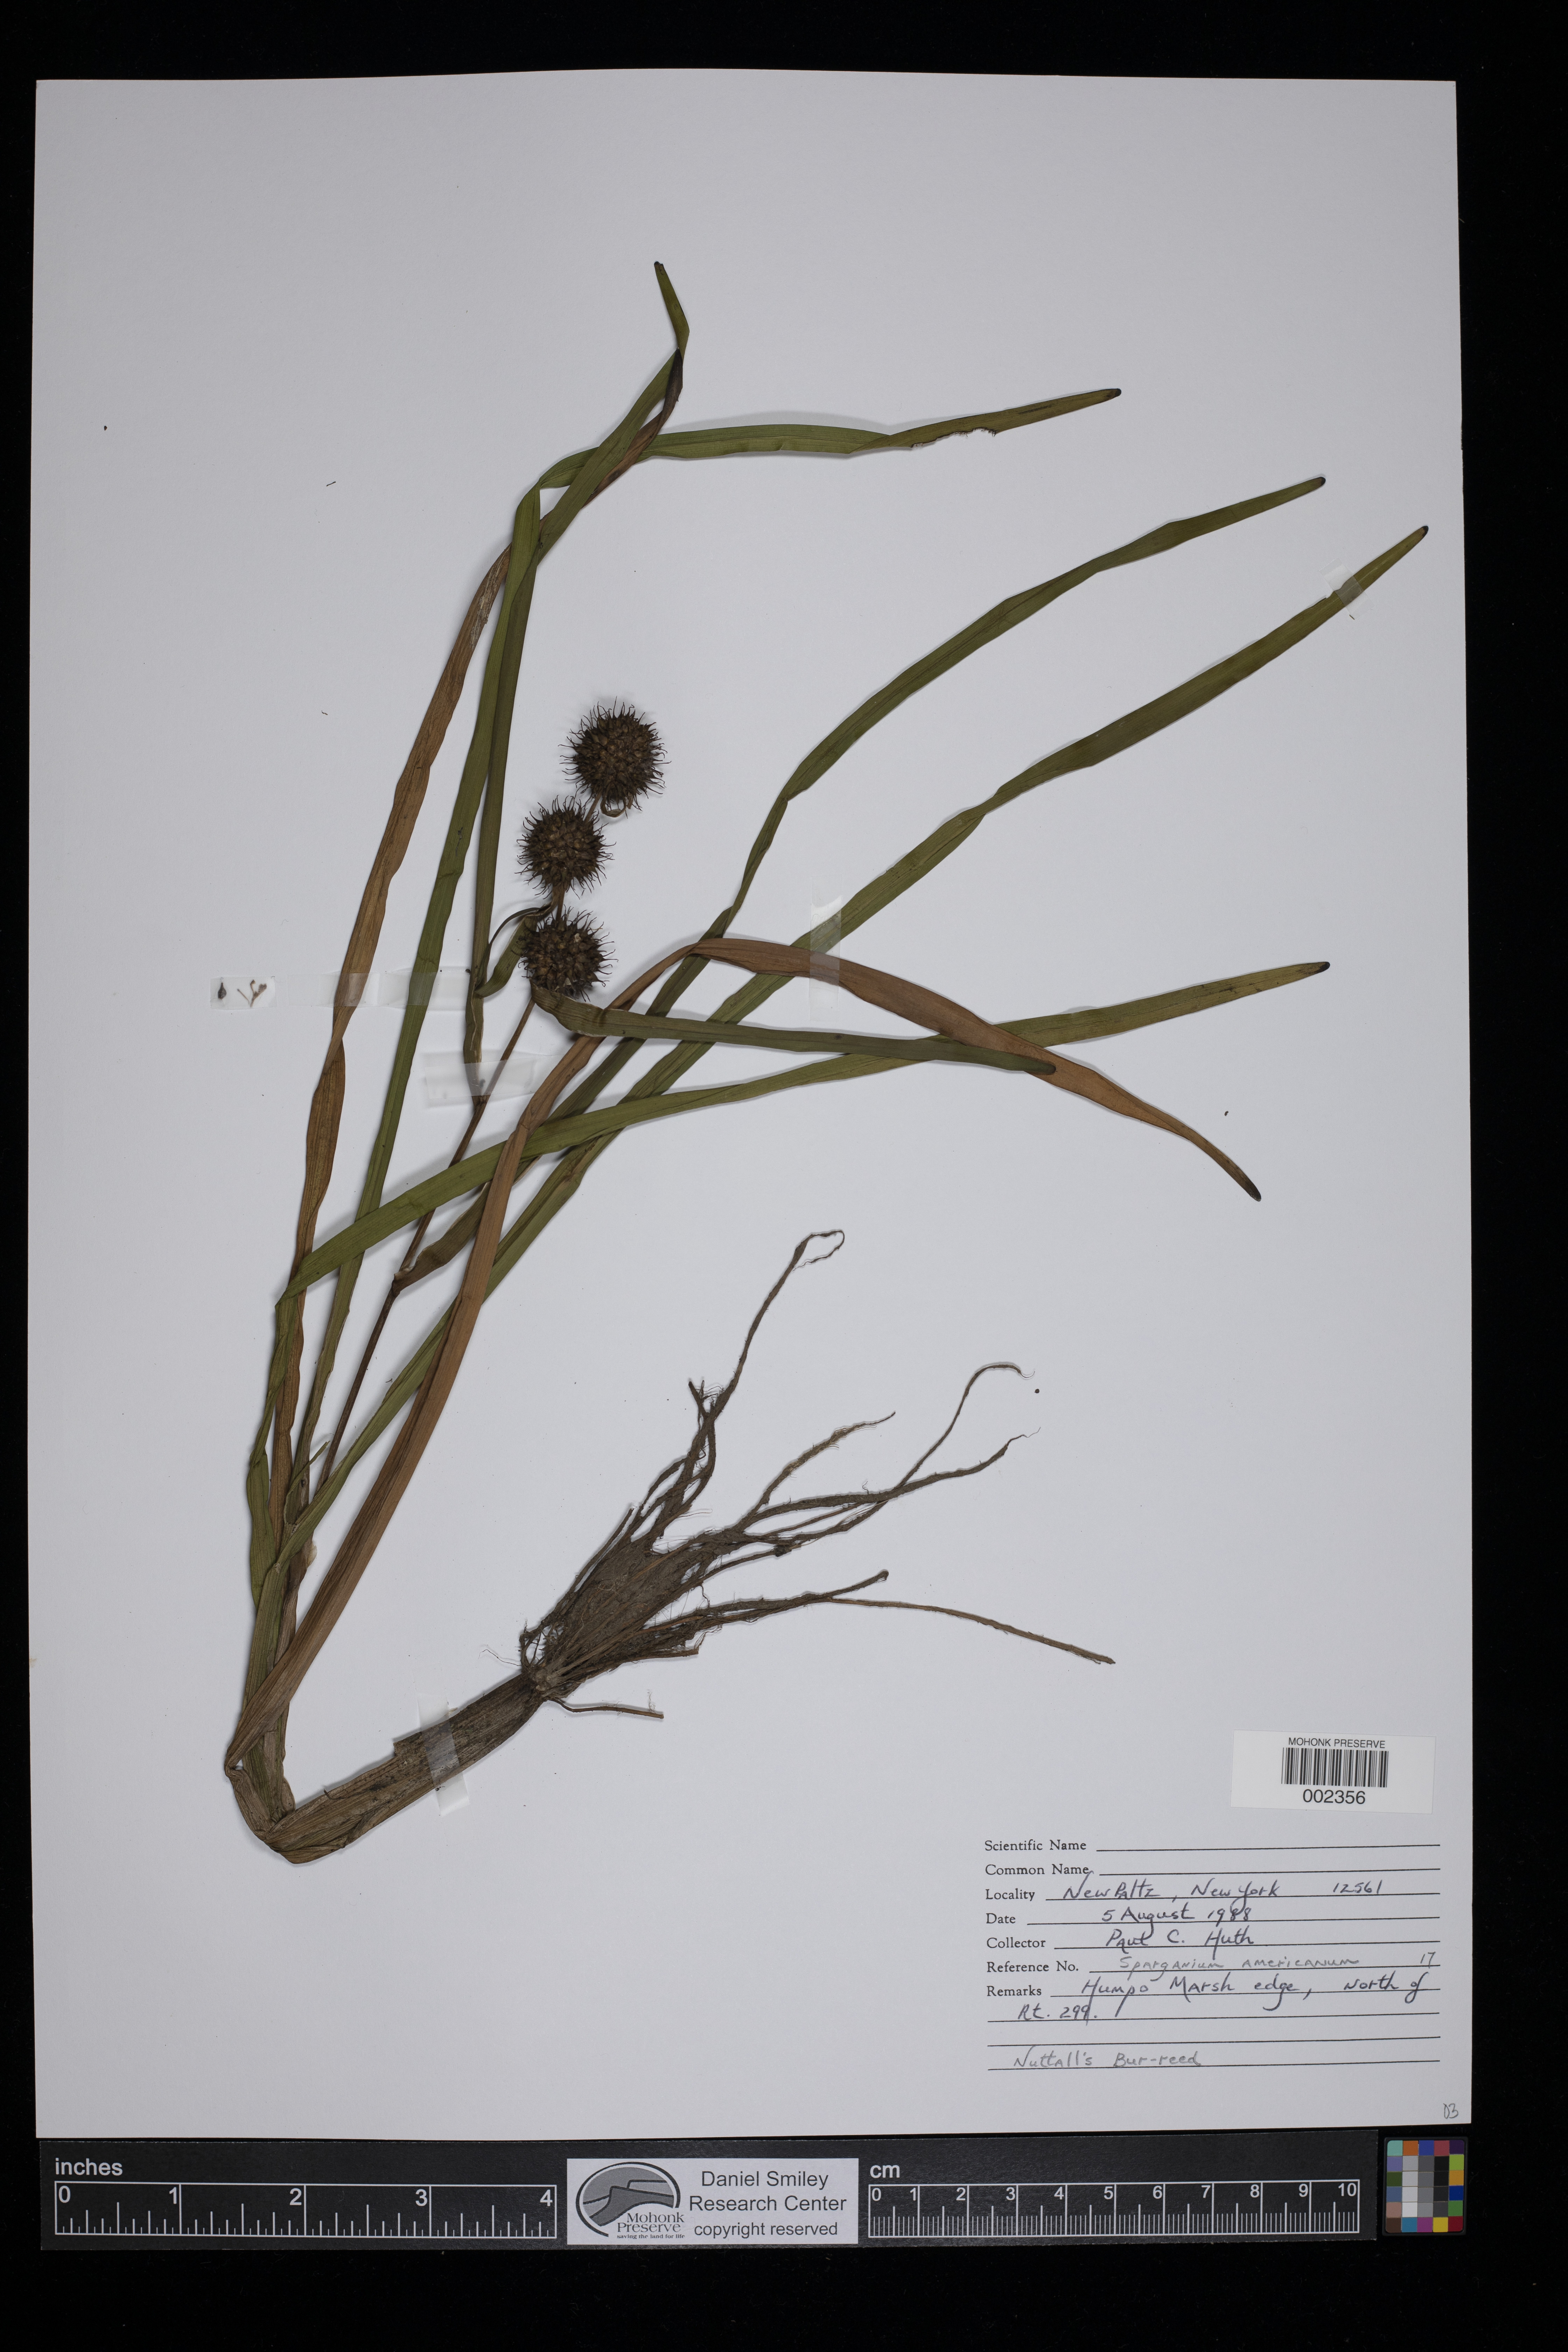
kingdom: Plantae
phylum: Tracheophyta
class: Liliopsida
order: Poales
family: Typhaceae
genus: Sparganium
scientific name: Sparganium americanum
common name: American burreed
